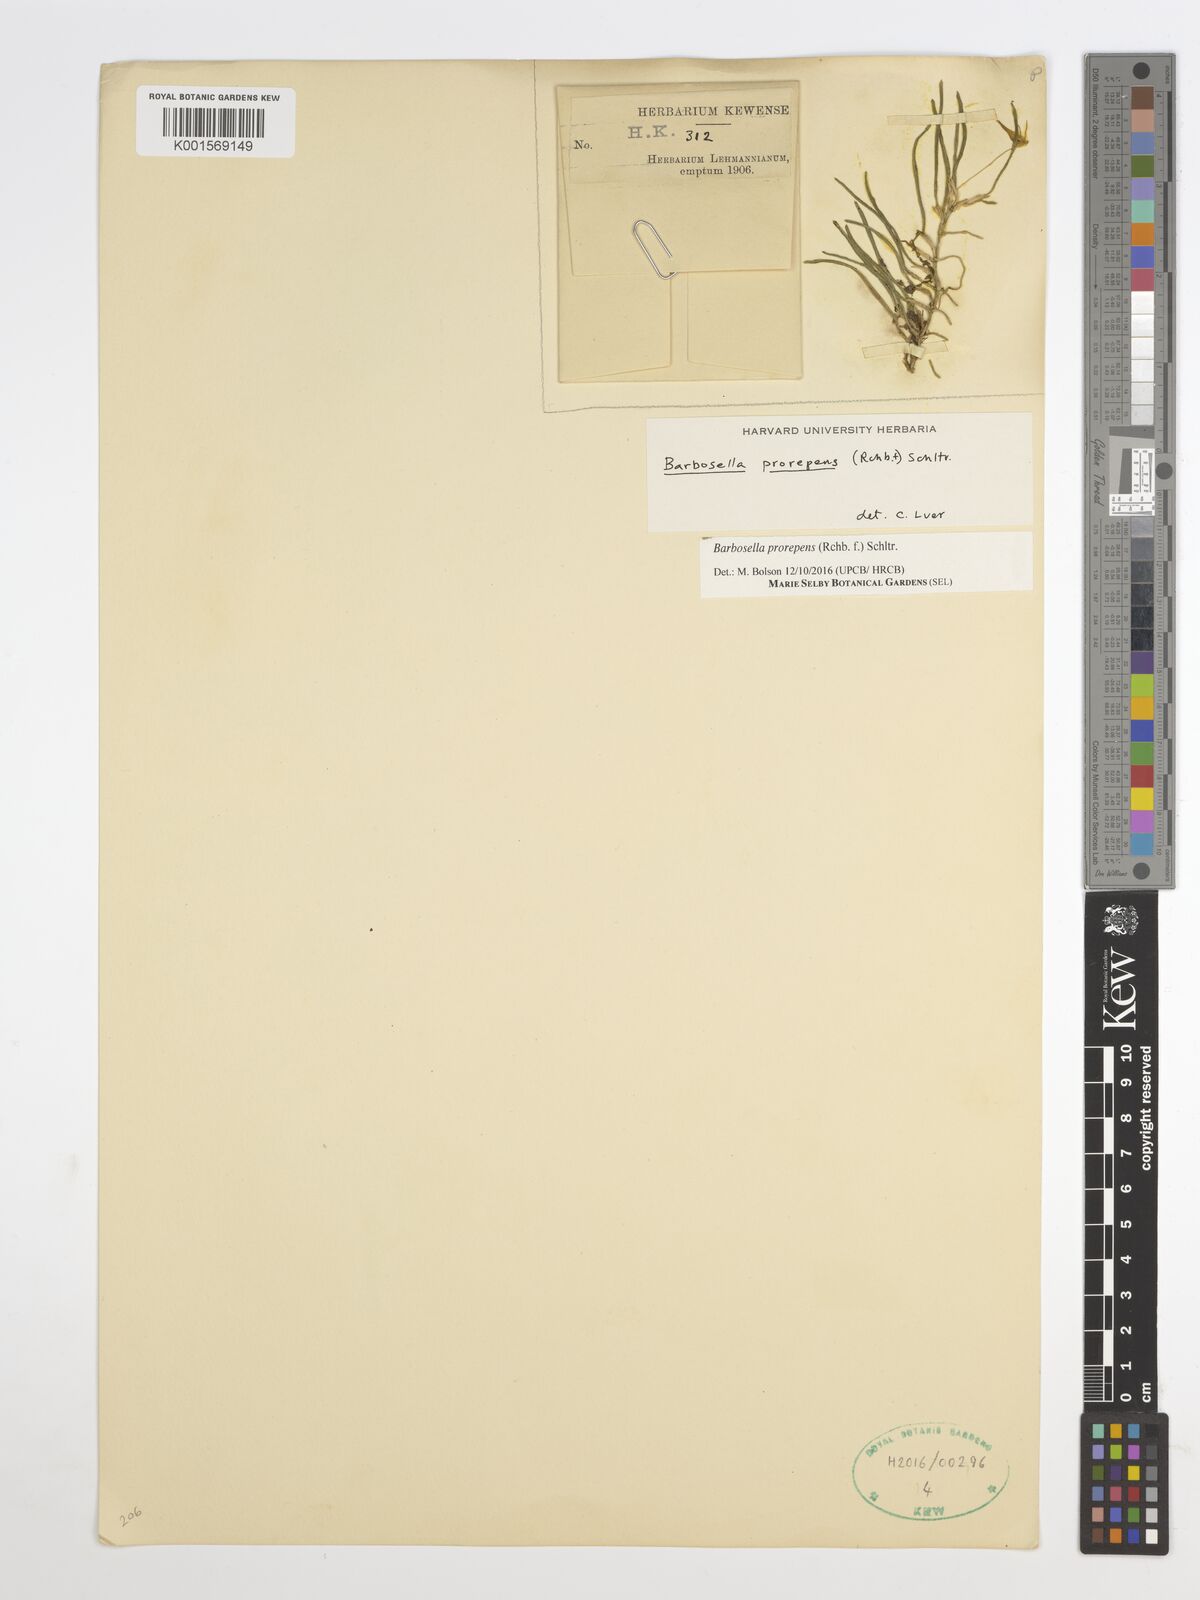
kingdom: Plantae
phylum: Tracheophyta
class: Liliopsida
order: Asparagales
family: Orchidaceae
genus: Barbosella
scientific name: Barbosella prorepens
